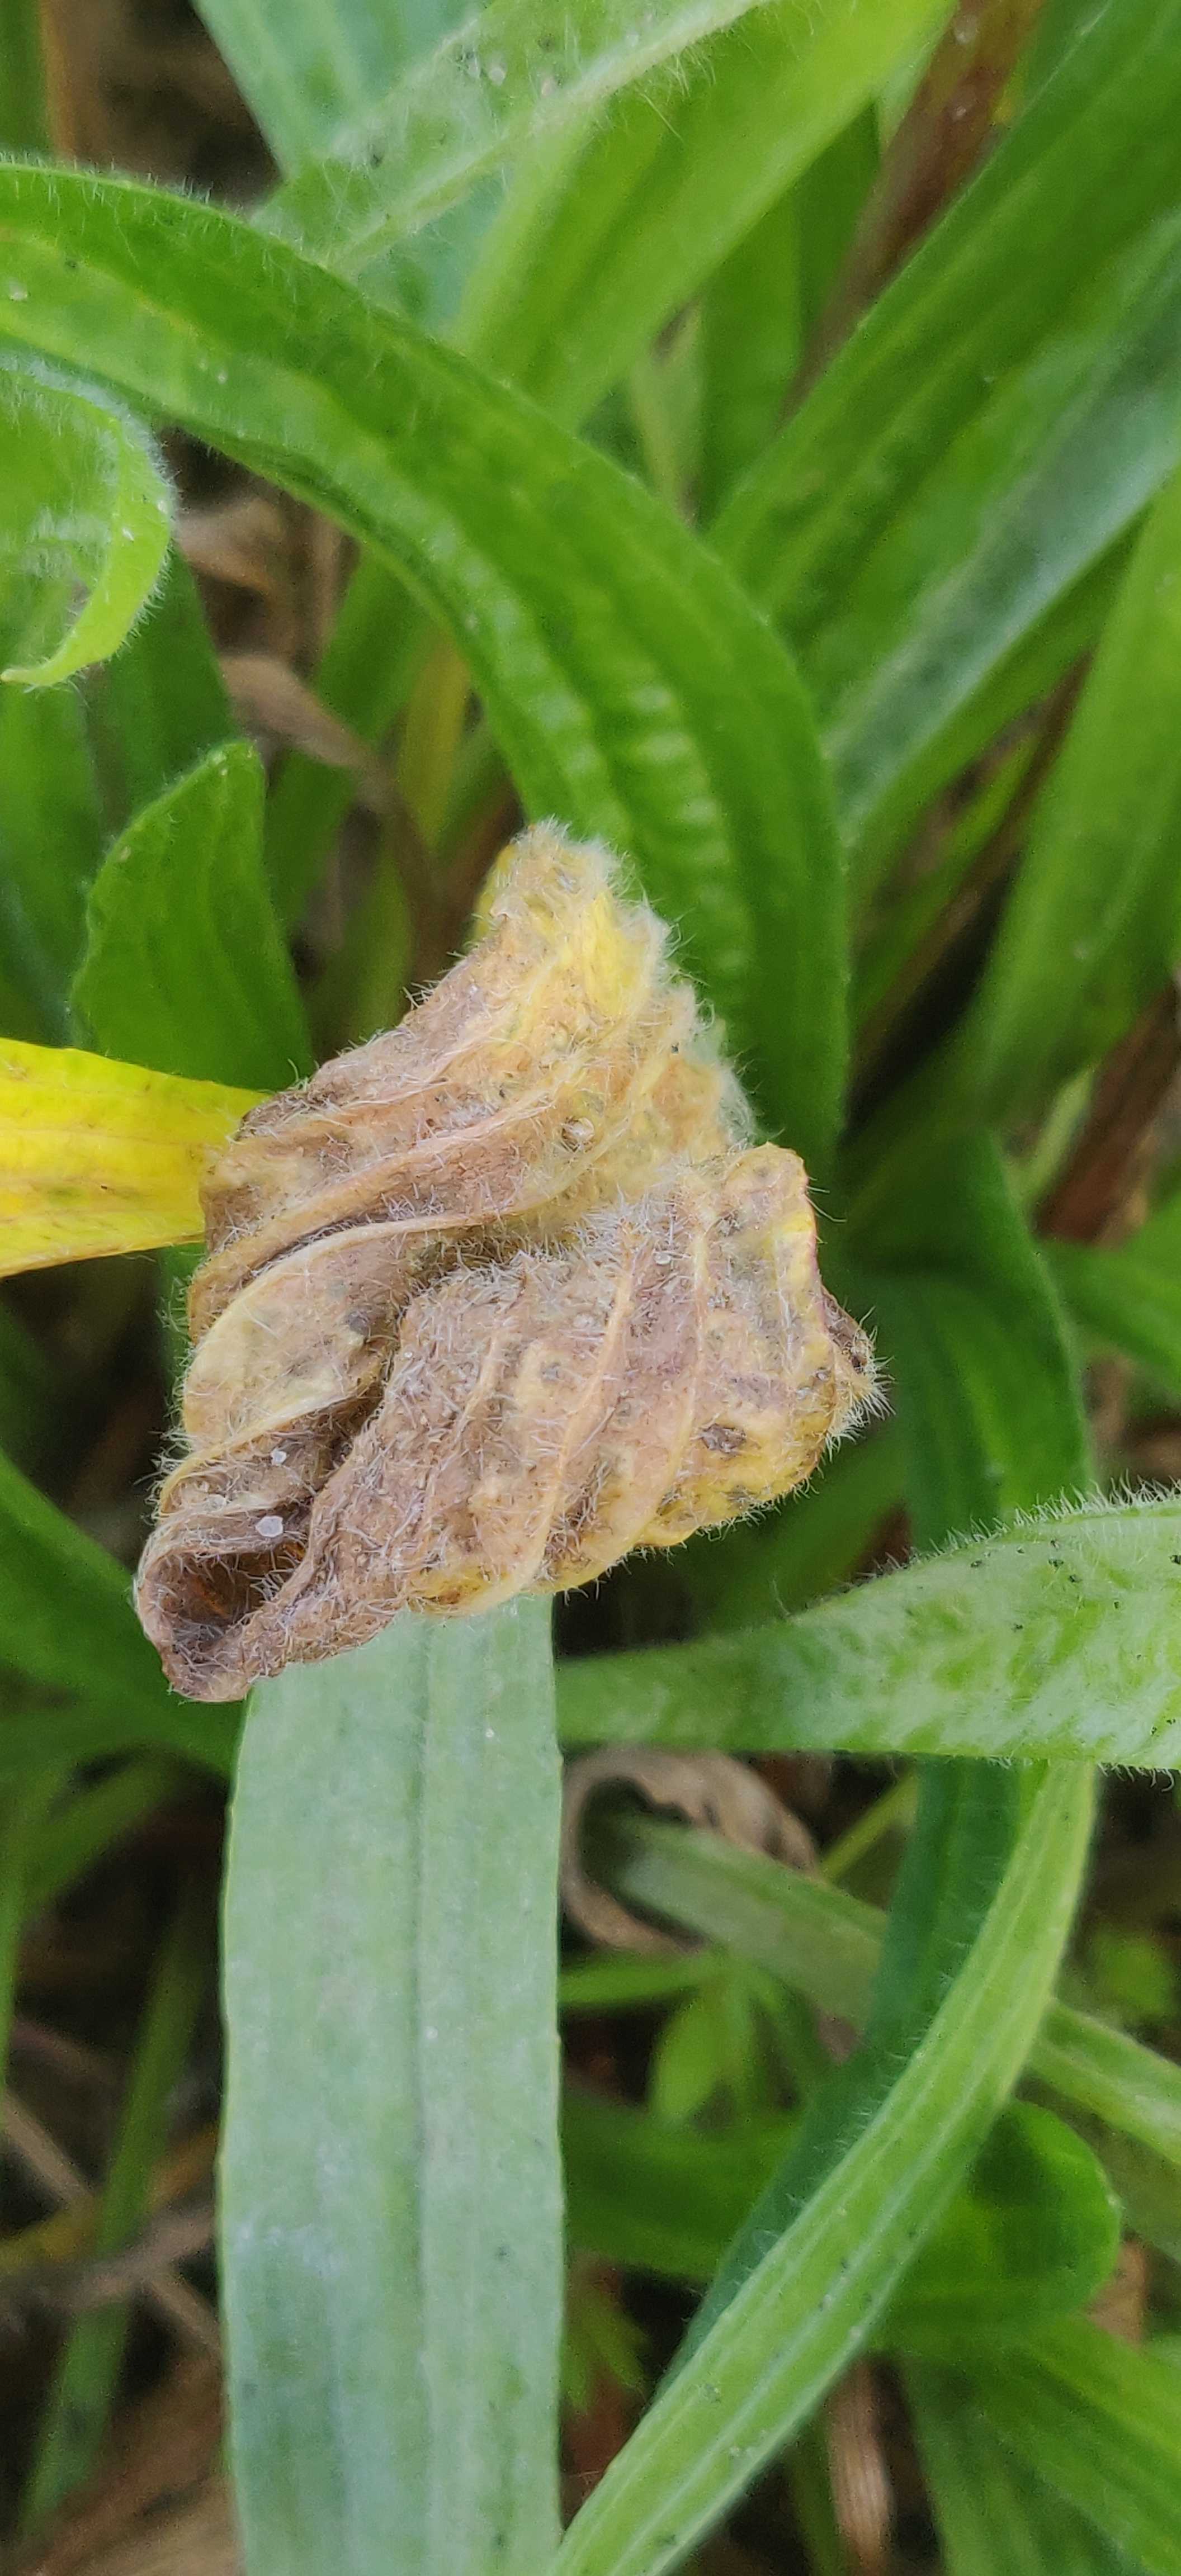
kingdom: Fungi
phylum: Ascomycota
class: Dothideomycetes
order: Mycosphaerellales
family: Mycosphaerellaceae
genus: Ramularia
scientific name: Ramularia rhabdospora
